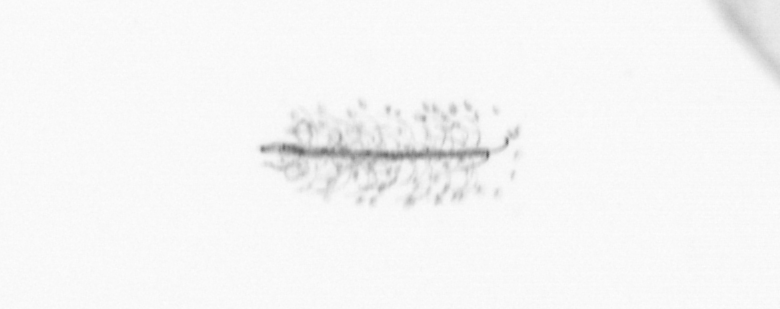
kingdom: Chromista
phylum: Ochrophyta
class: Bacillariophyceae
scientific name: Bacillariophyceae
